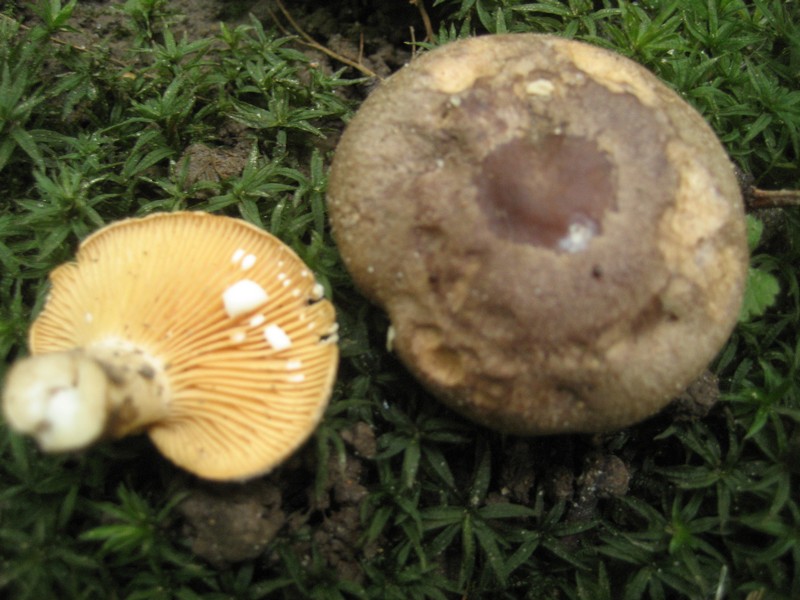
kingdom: Fungi
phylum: Basidiomycota
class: Agaricomycetes
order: Russulales
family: Russulaceae
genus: Lactarius
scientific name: Lactarius pyrogalus
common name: hassel-mælkehat
